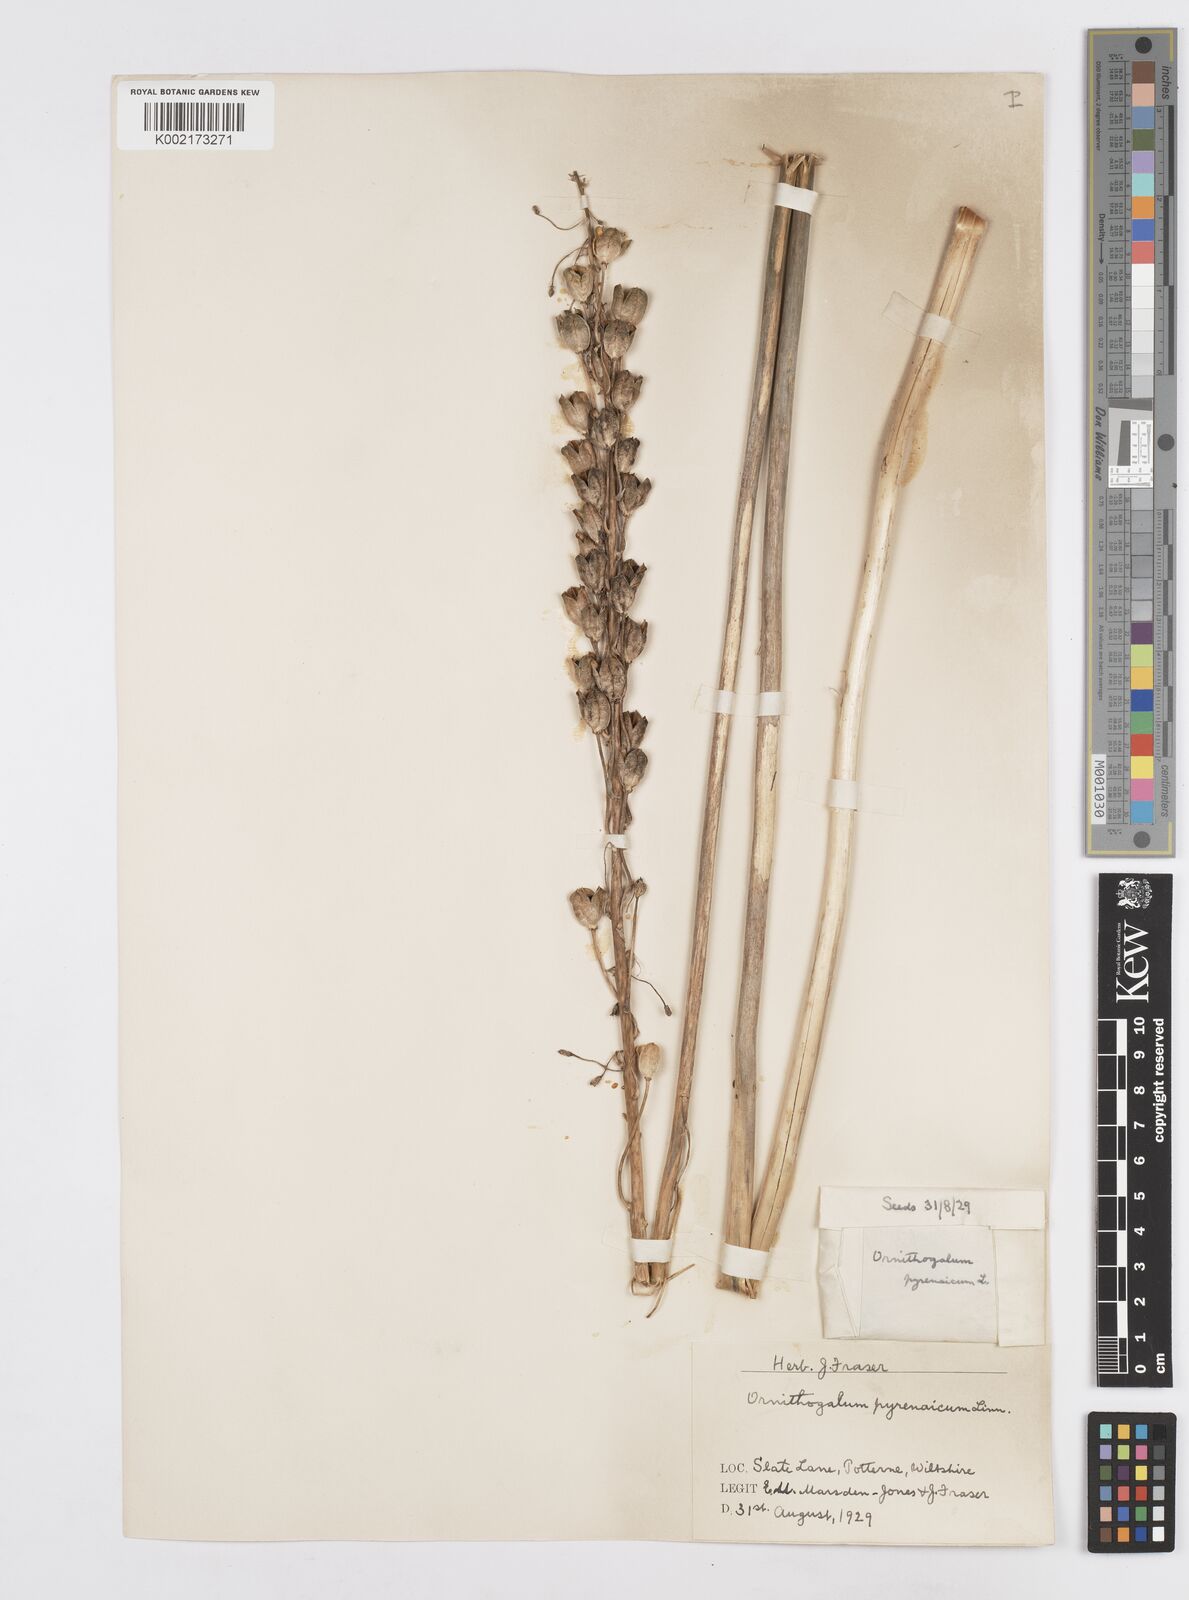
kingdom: Plantae
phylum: Tracheophyta
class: Liliopsida
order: Asparagales
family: Asparagaceae
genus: Ornithogalum
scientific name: Ornithogalum pyrenaicum
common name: Spiked star-of-bethlehem
